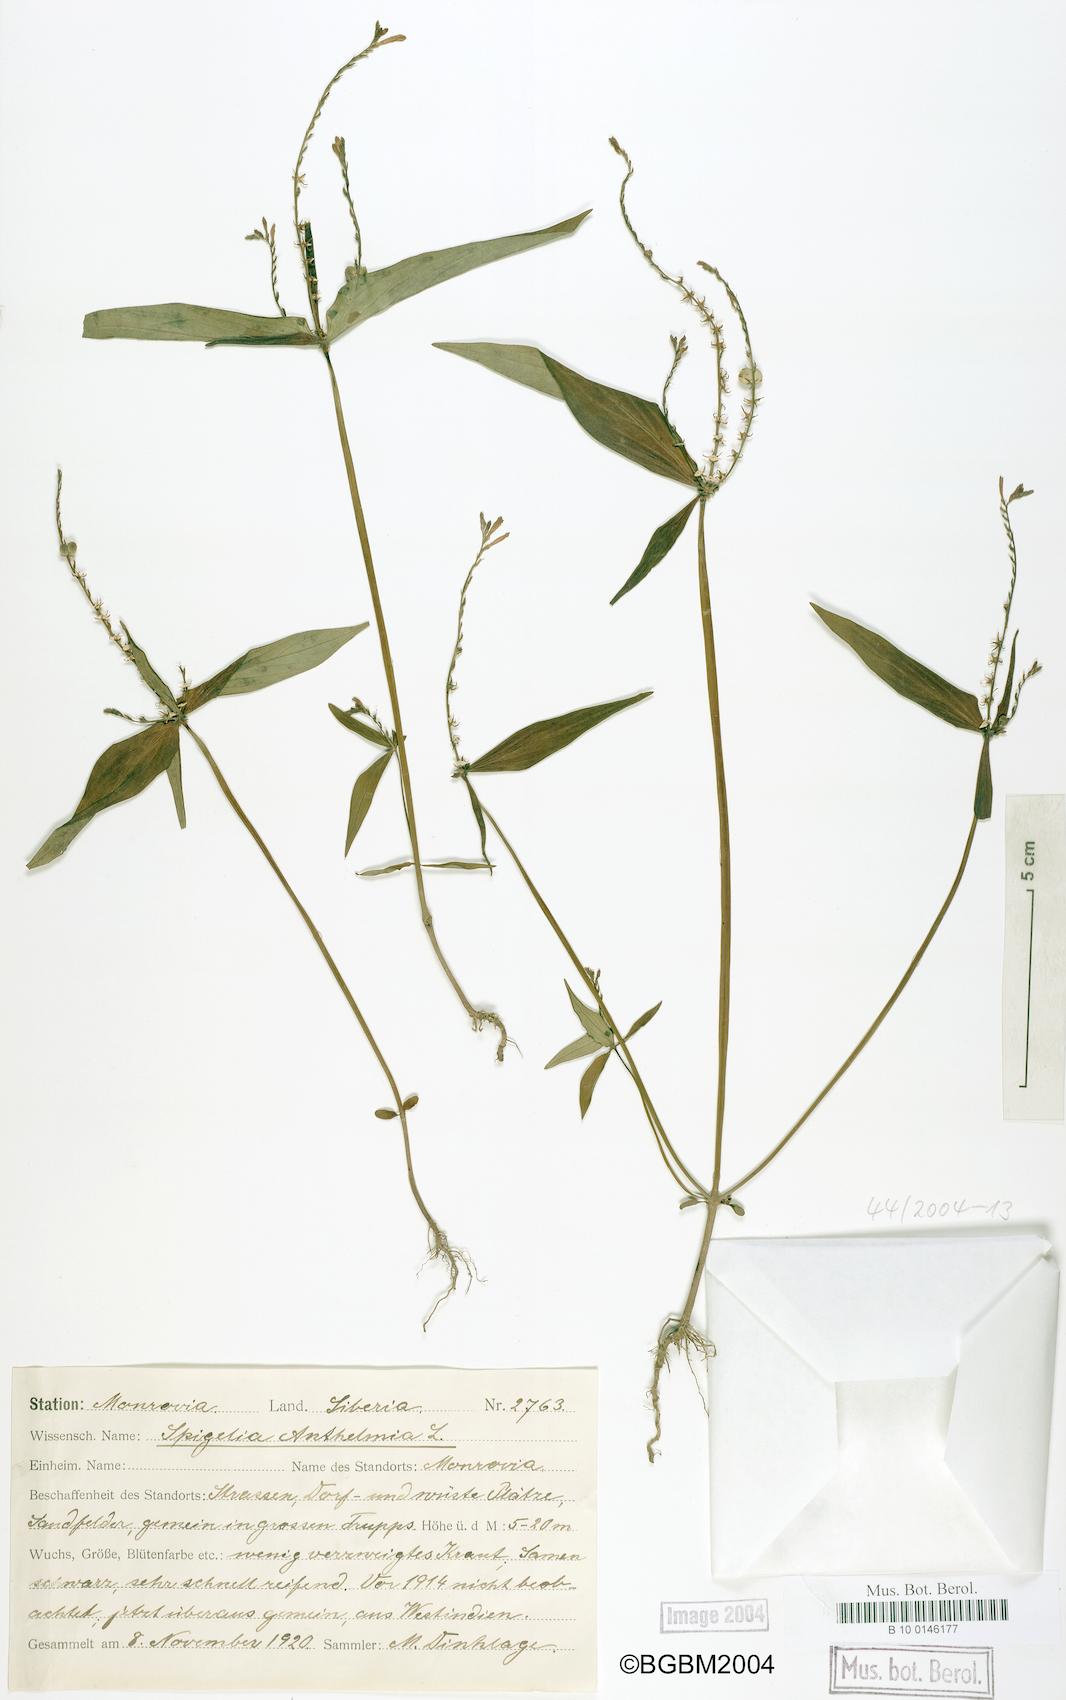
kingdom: Plantae
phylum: Tracheophyta
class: Magnoliopsida
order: Gentianales
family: Loganiaceae
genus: Spigelia
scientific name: Spigelia anthelmia
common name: West indian-pink
